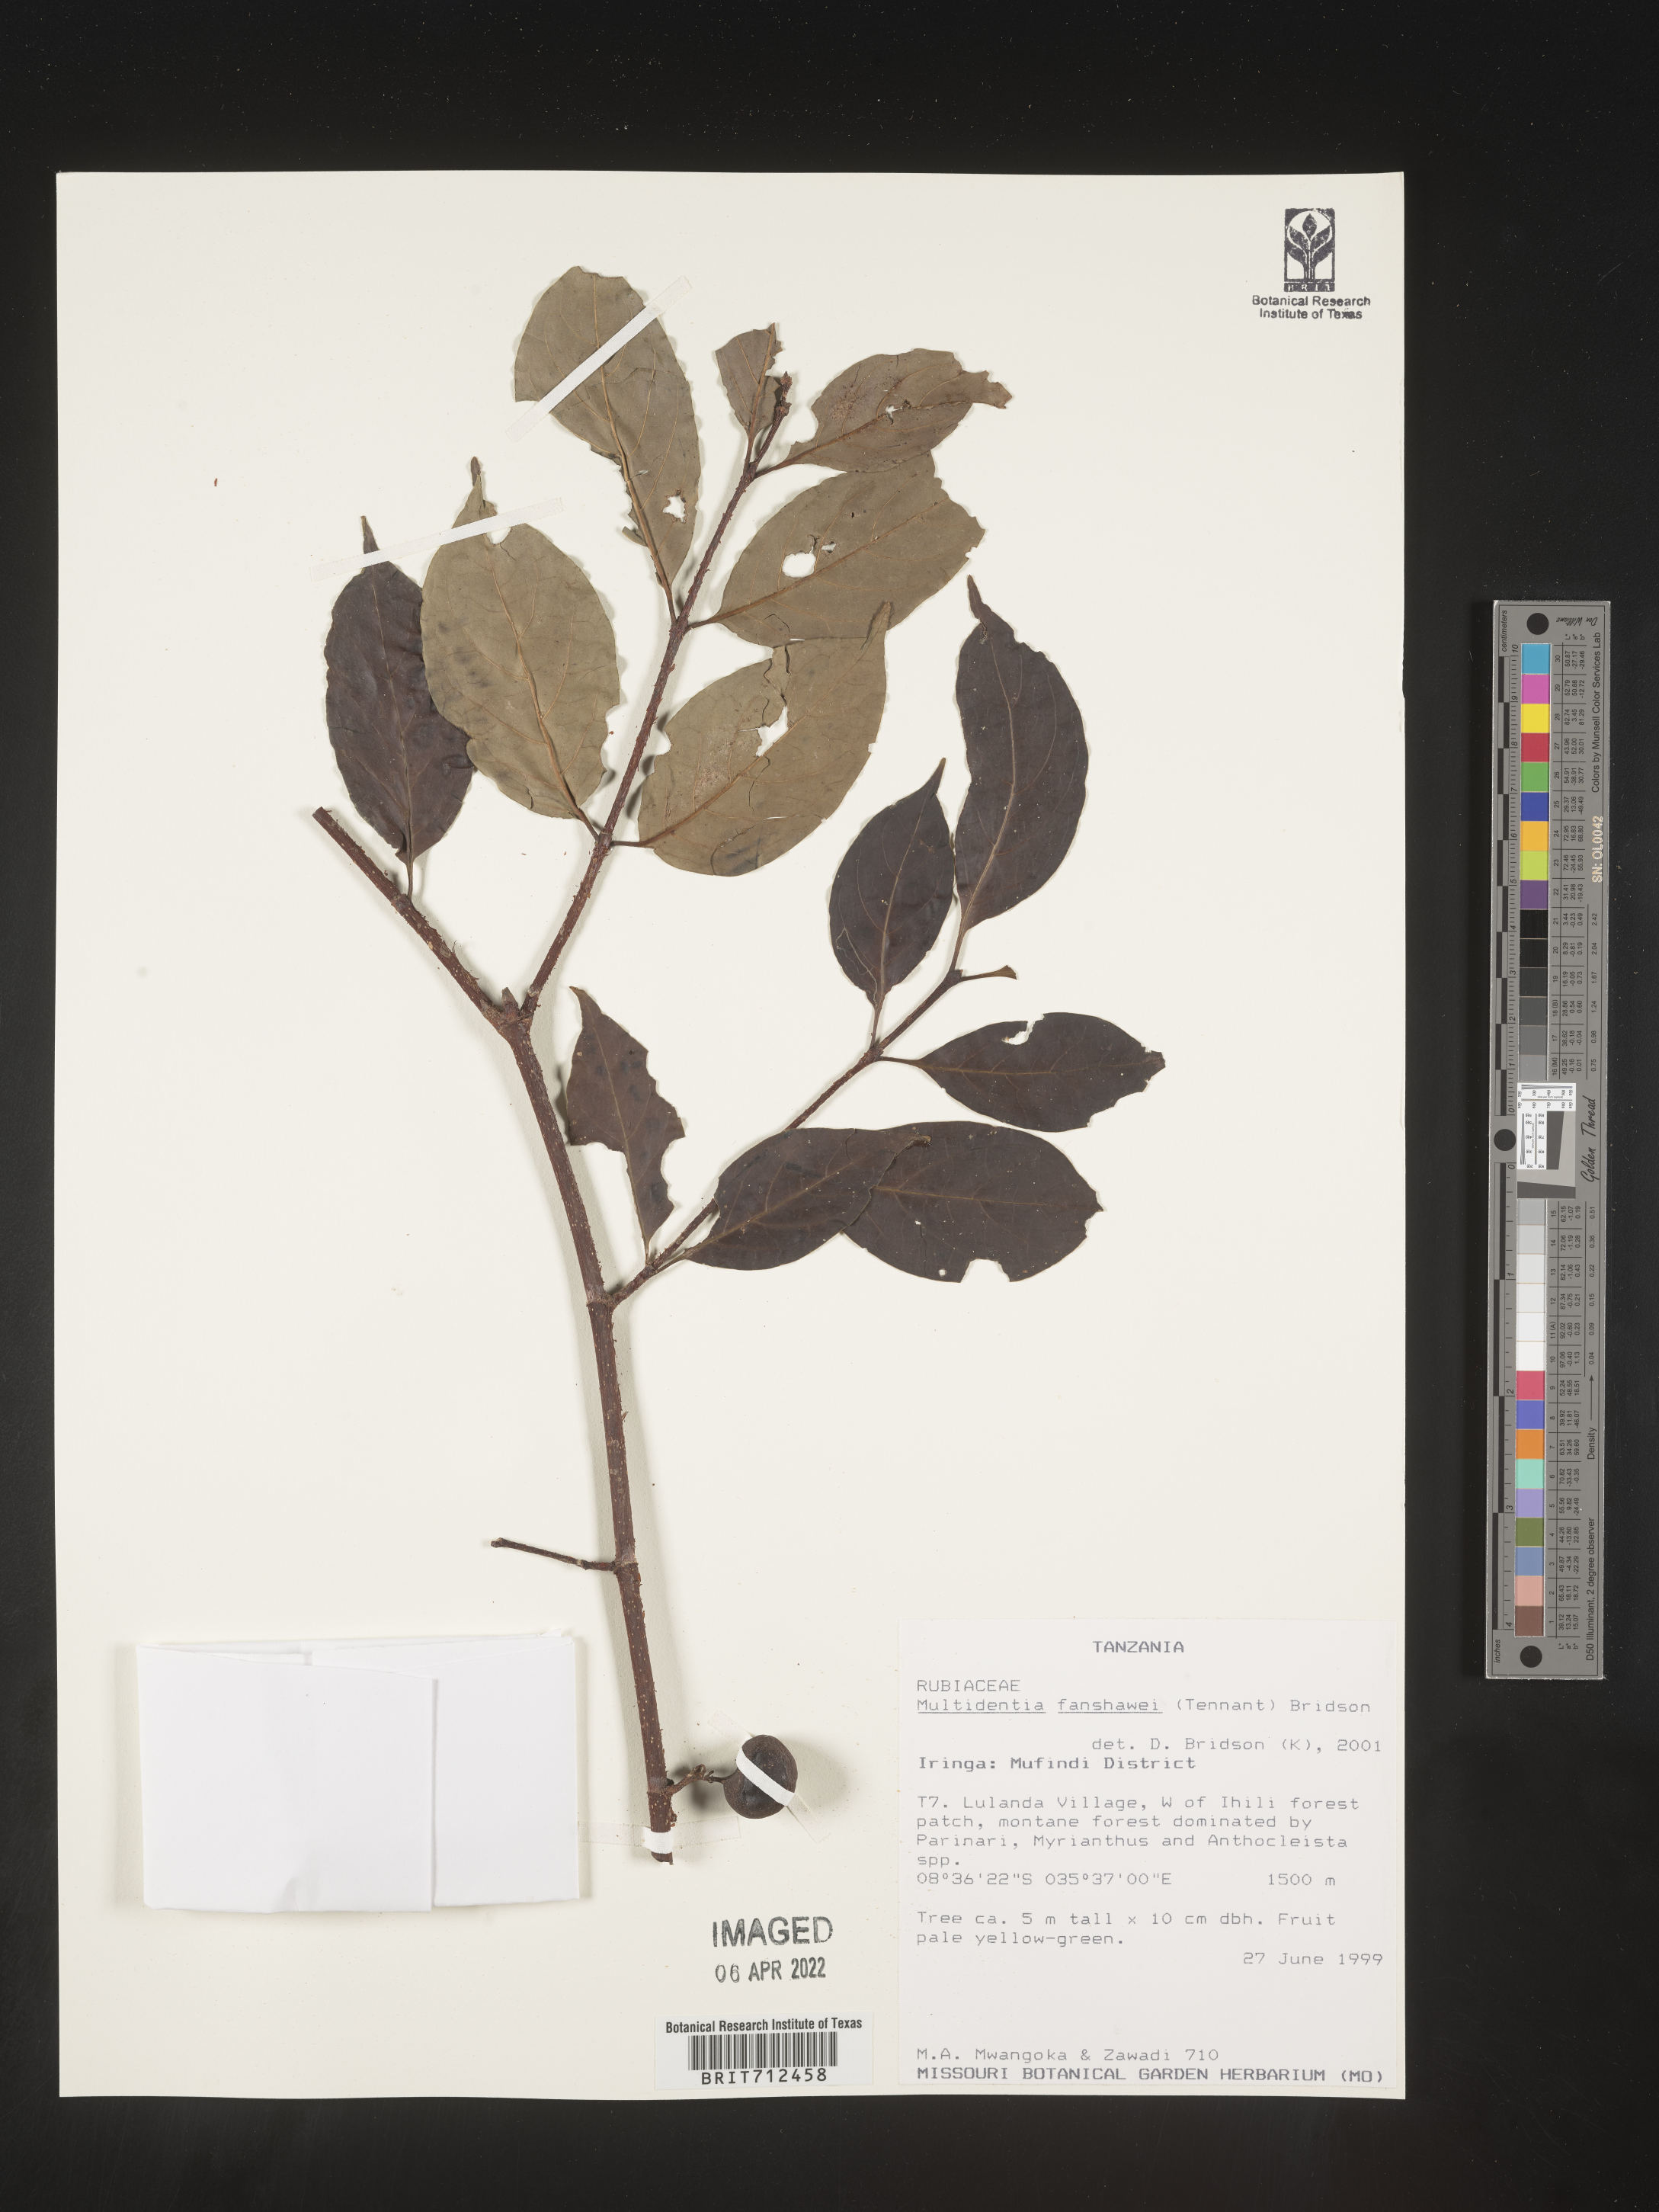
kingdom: Plantae
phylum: Tracheophyta
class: Magnoliopsida
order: Gentianales
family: Rubiaceae
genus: Multidentia
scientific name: Multidentia
